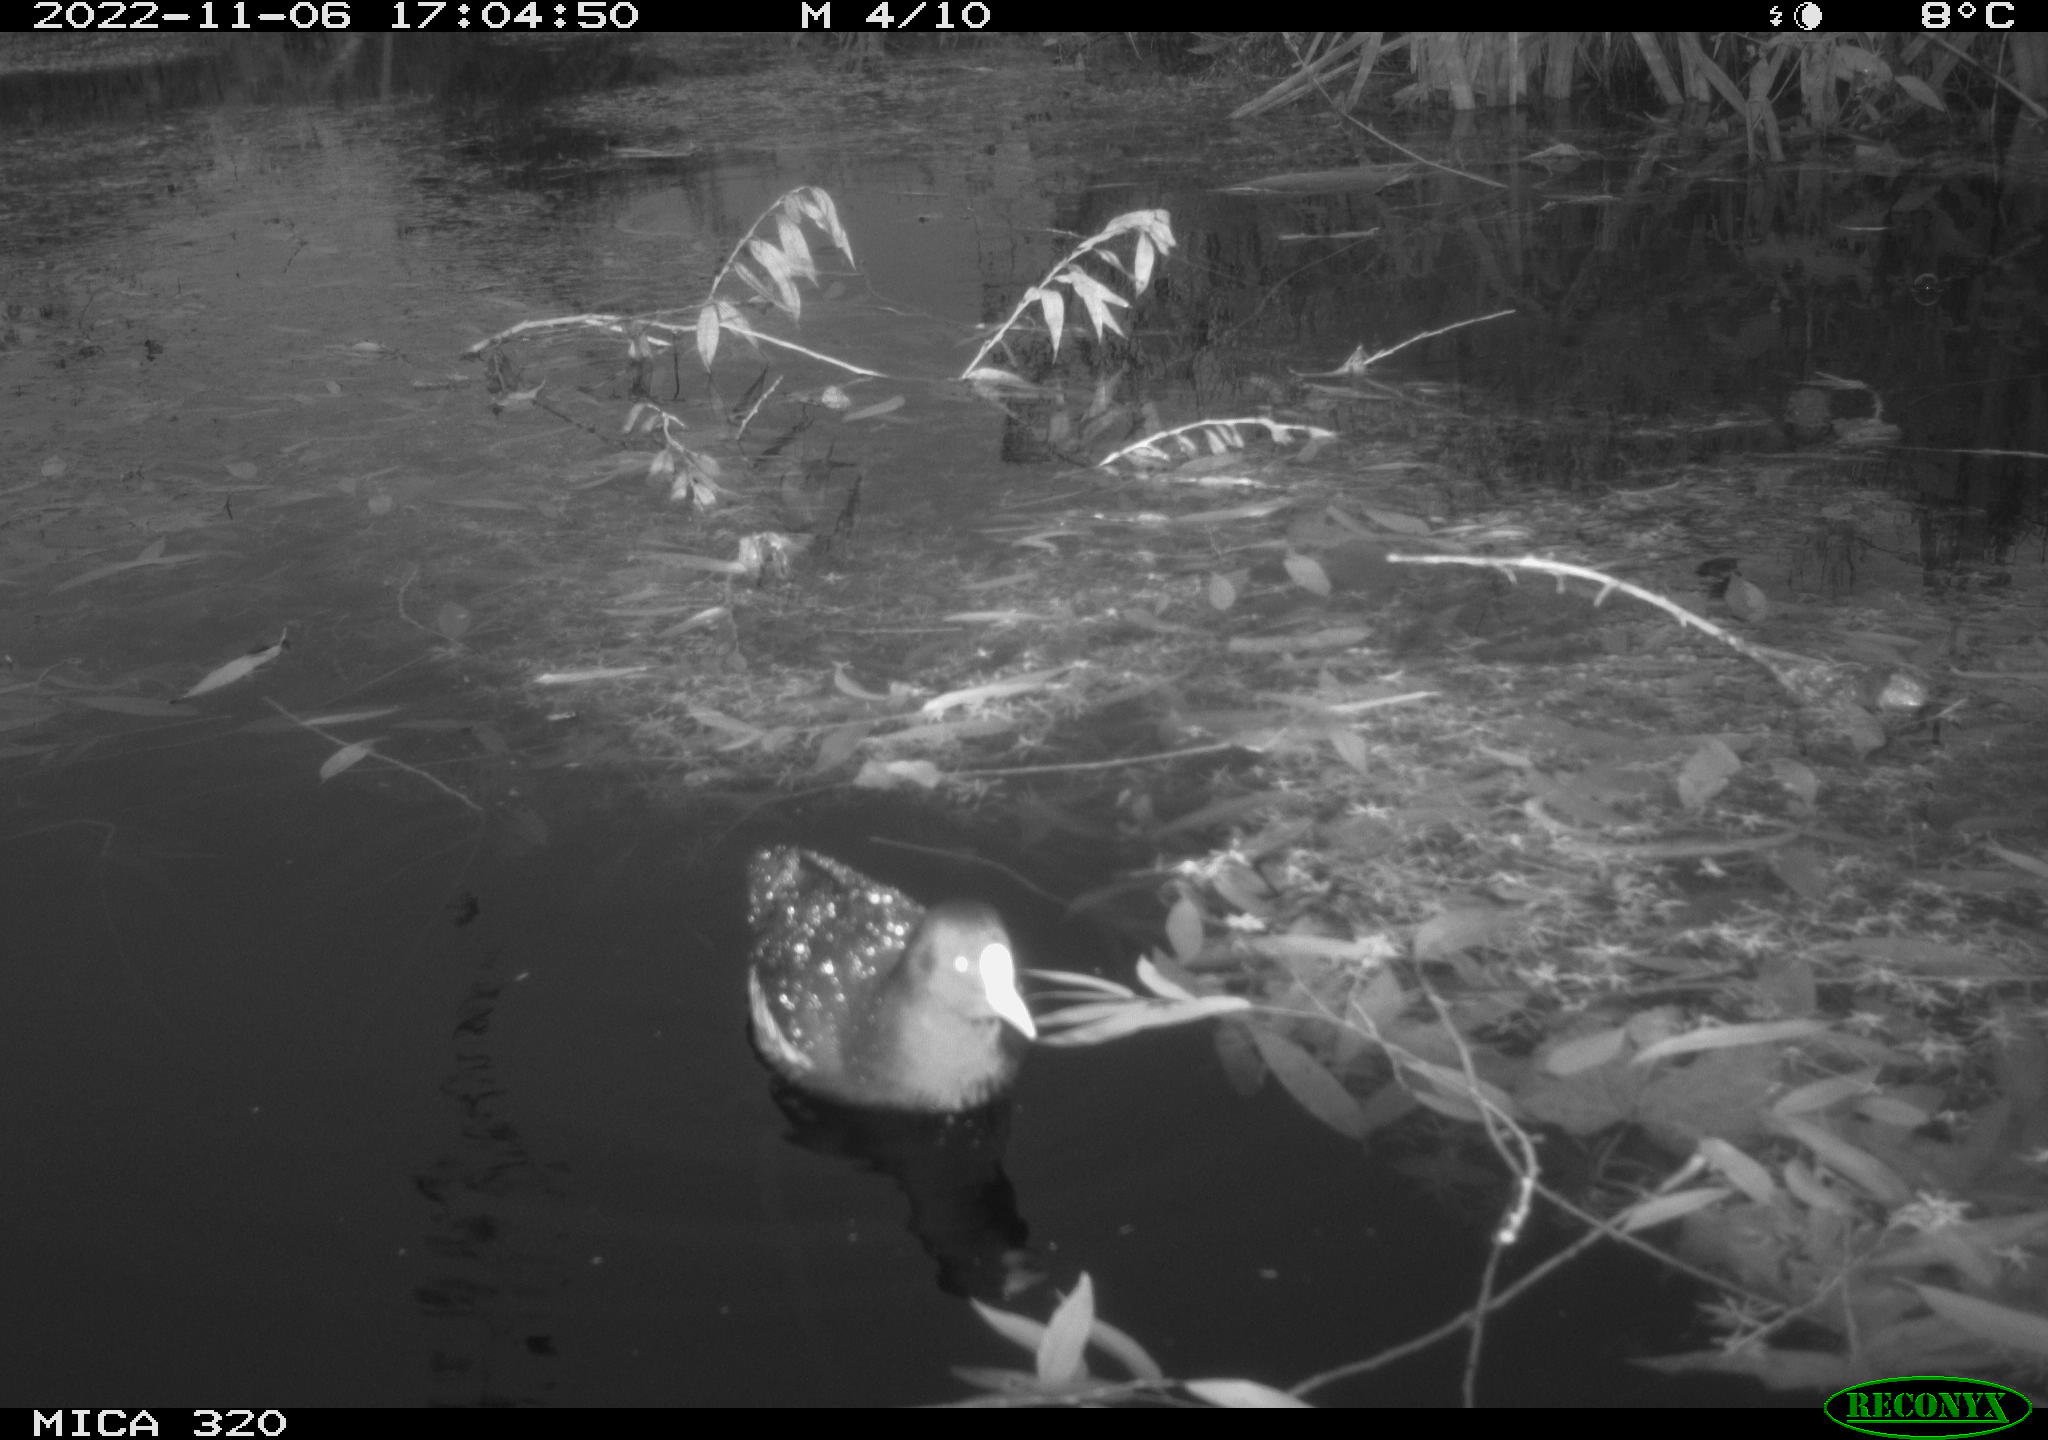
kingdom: Animalia
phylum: Chordata
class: Aves
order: Gruiformes
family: Rallidae
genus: Fulica
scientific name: Fulica atra
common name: Eurasian coot
